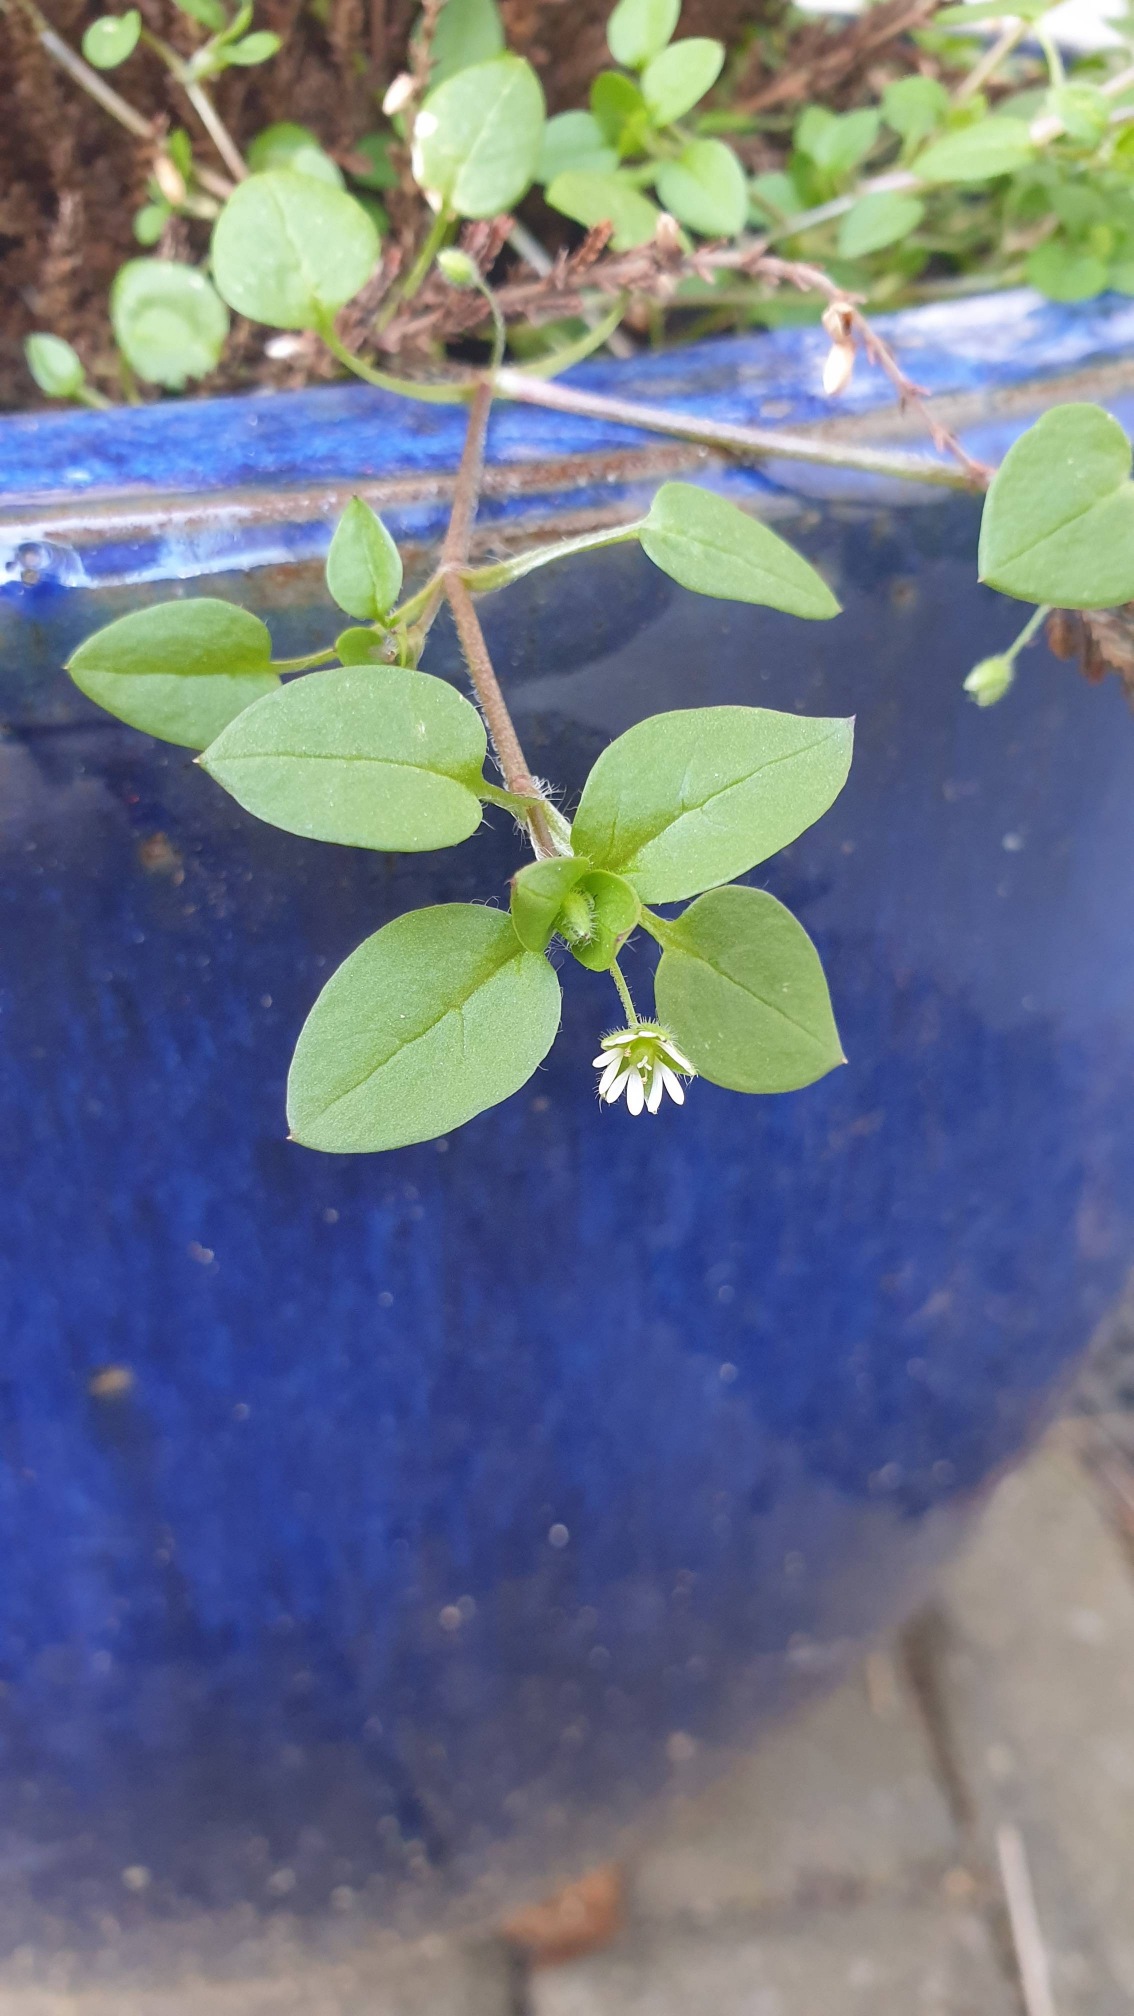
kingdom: Plantae
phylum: Tracheophyta
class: Magnoliopsida
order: Caryophyllales
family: Caryophyllaceae
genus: Stellaria
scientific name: Stellaria media
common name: Almindelig fuglegræs
